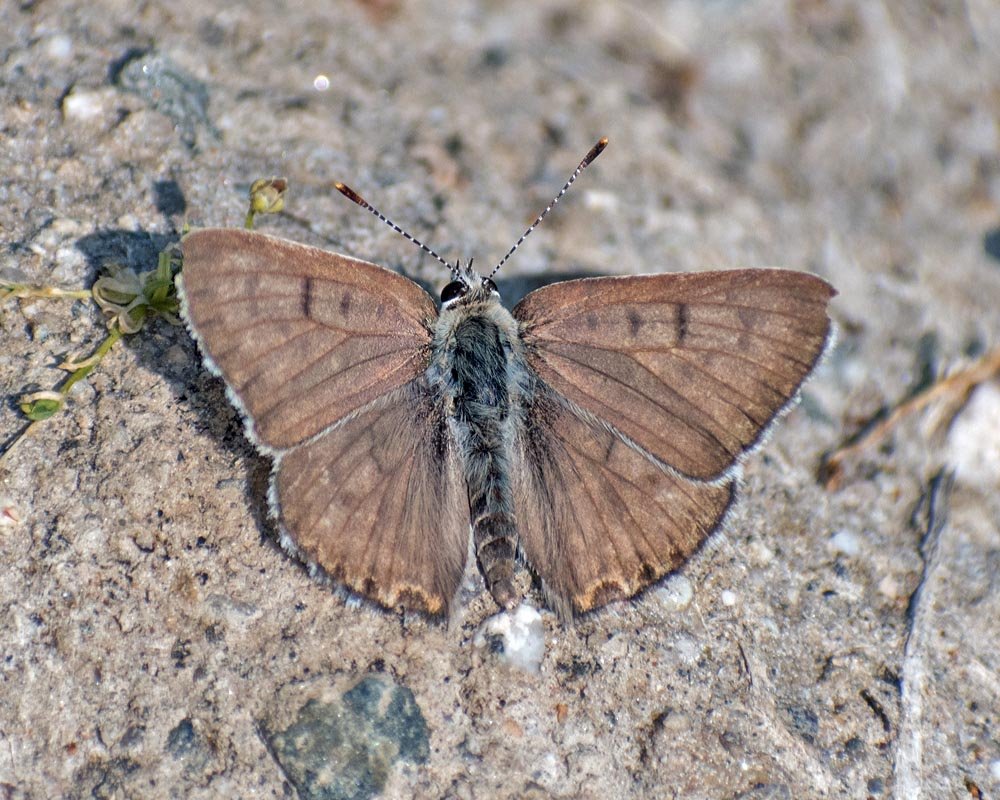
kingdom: Animalia
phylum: Arthropoda
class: Insecta
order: Lepidoptera
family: Lycaenidae
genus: Lycaena
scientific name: Lycaena editha
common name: Edith's Copper
